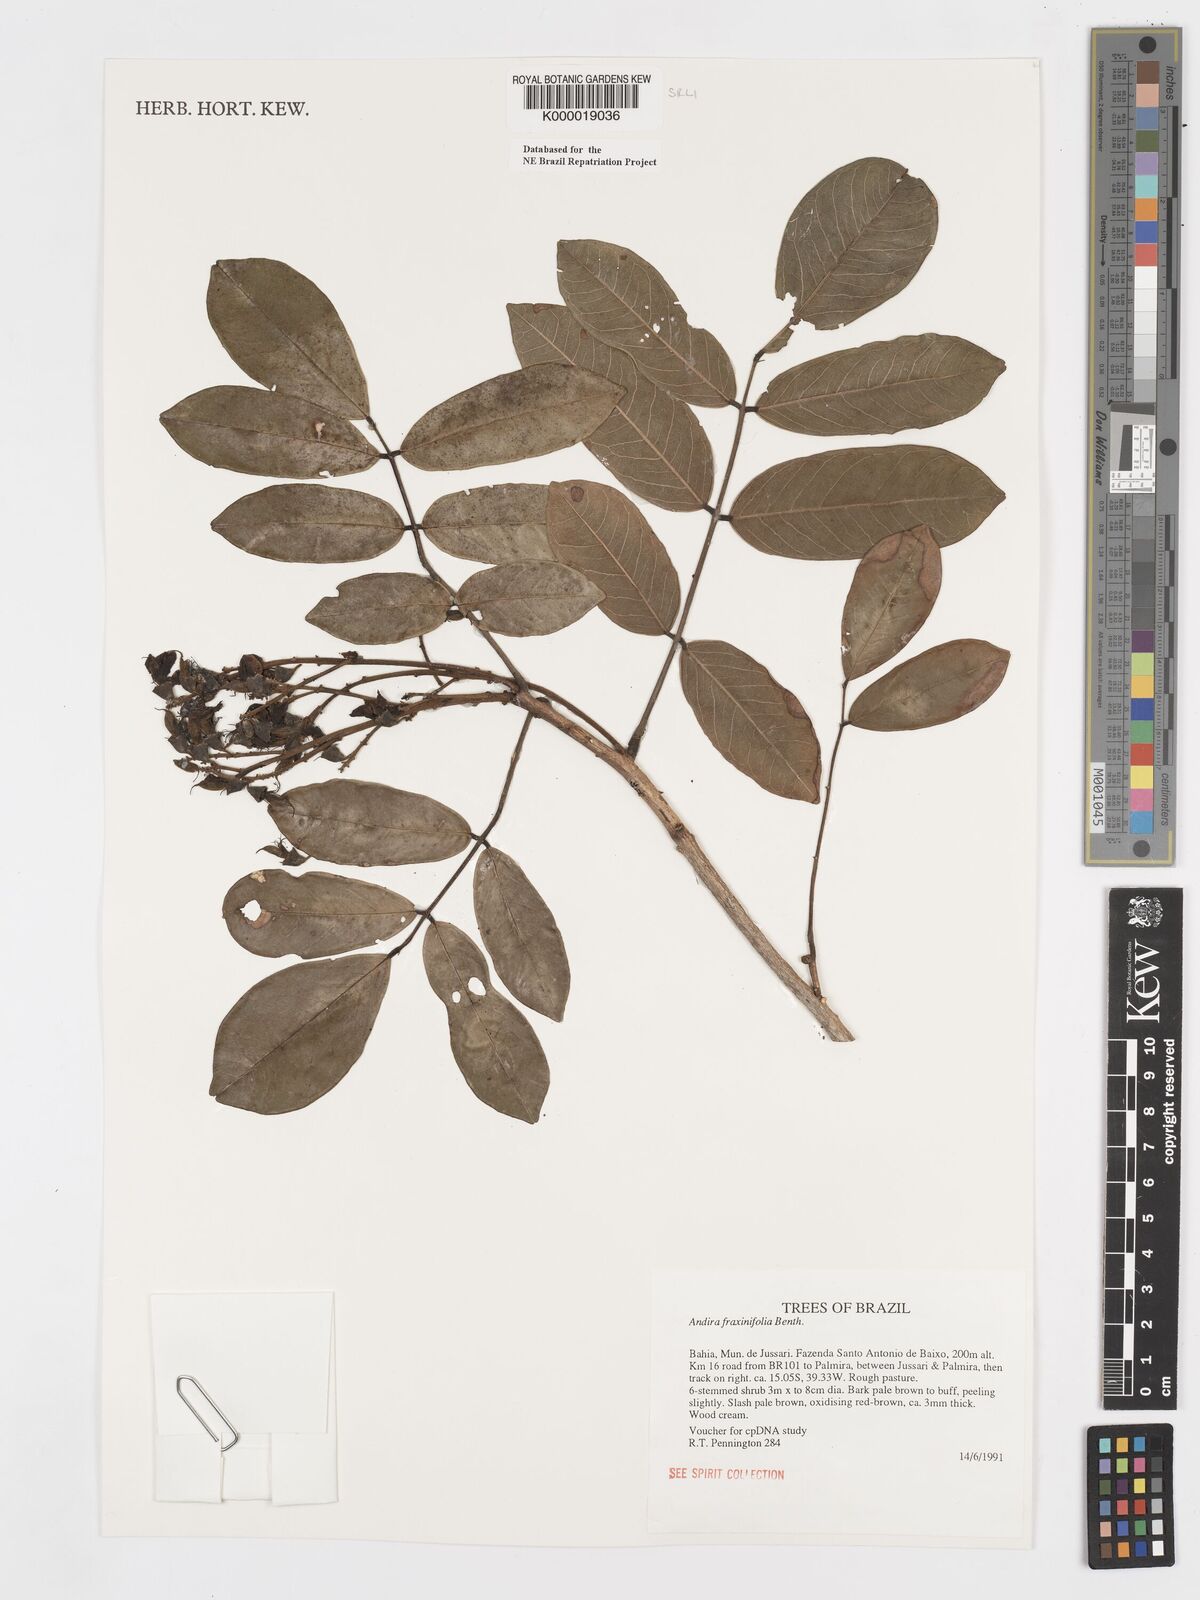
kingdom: Plantae
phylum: Tracheophyta
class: Magnoliopsida
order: Fabales
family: Fabaceae
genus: Andira
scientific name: Andira fraxinifolia
